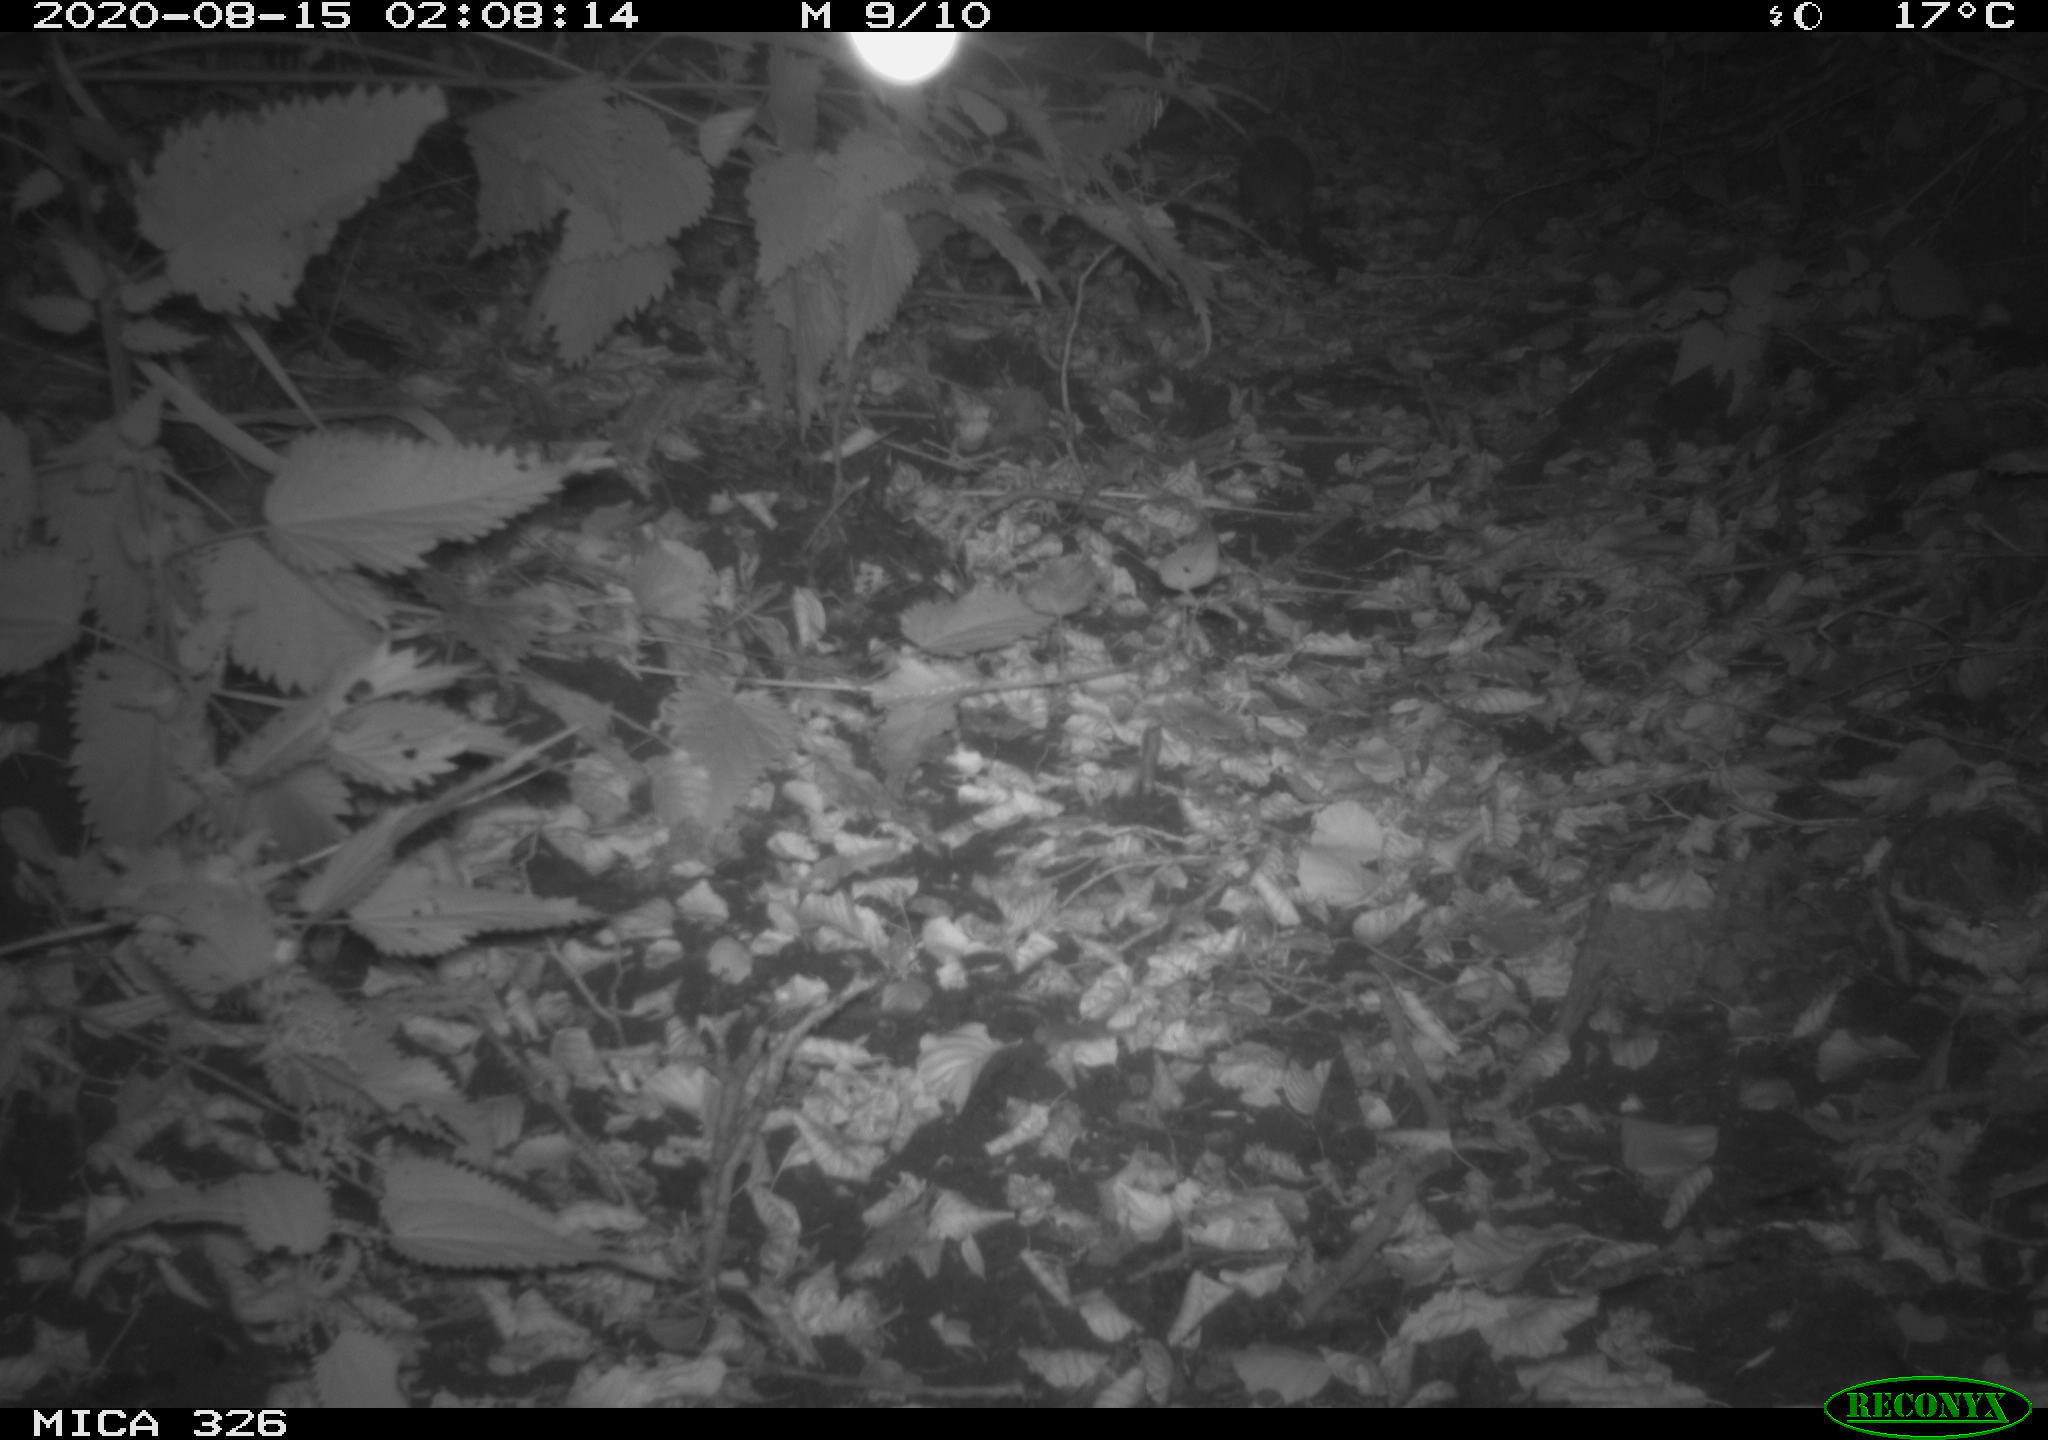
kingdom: Animalia
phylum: Chordata
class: Mammalia
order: Rodentia
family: Muridae
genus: Rattus
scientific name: Rattus norvegicus
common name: Brown rat
